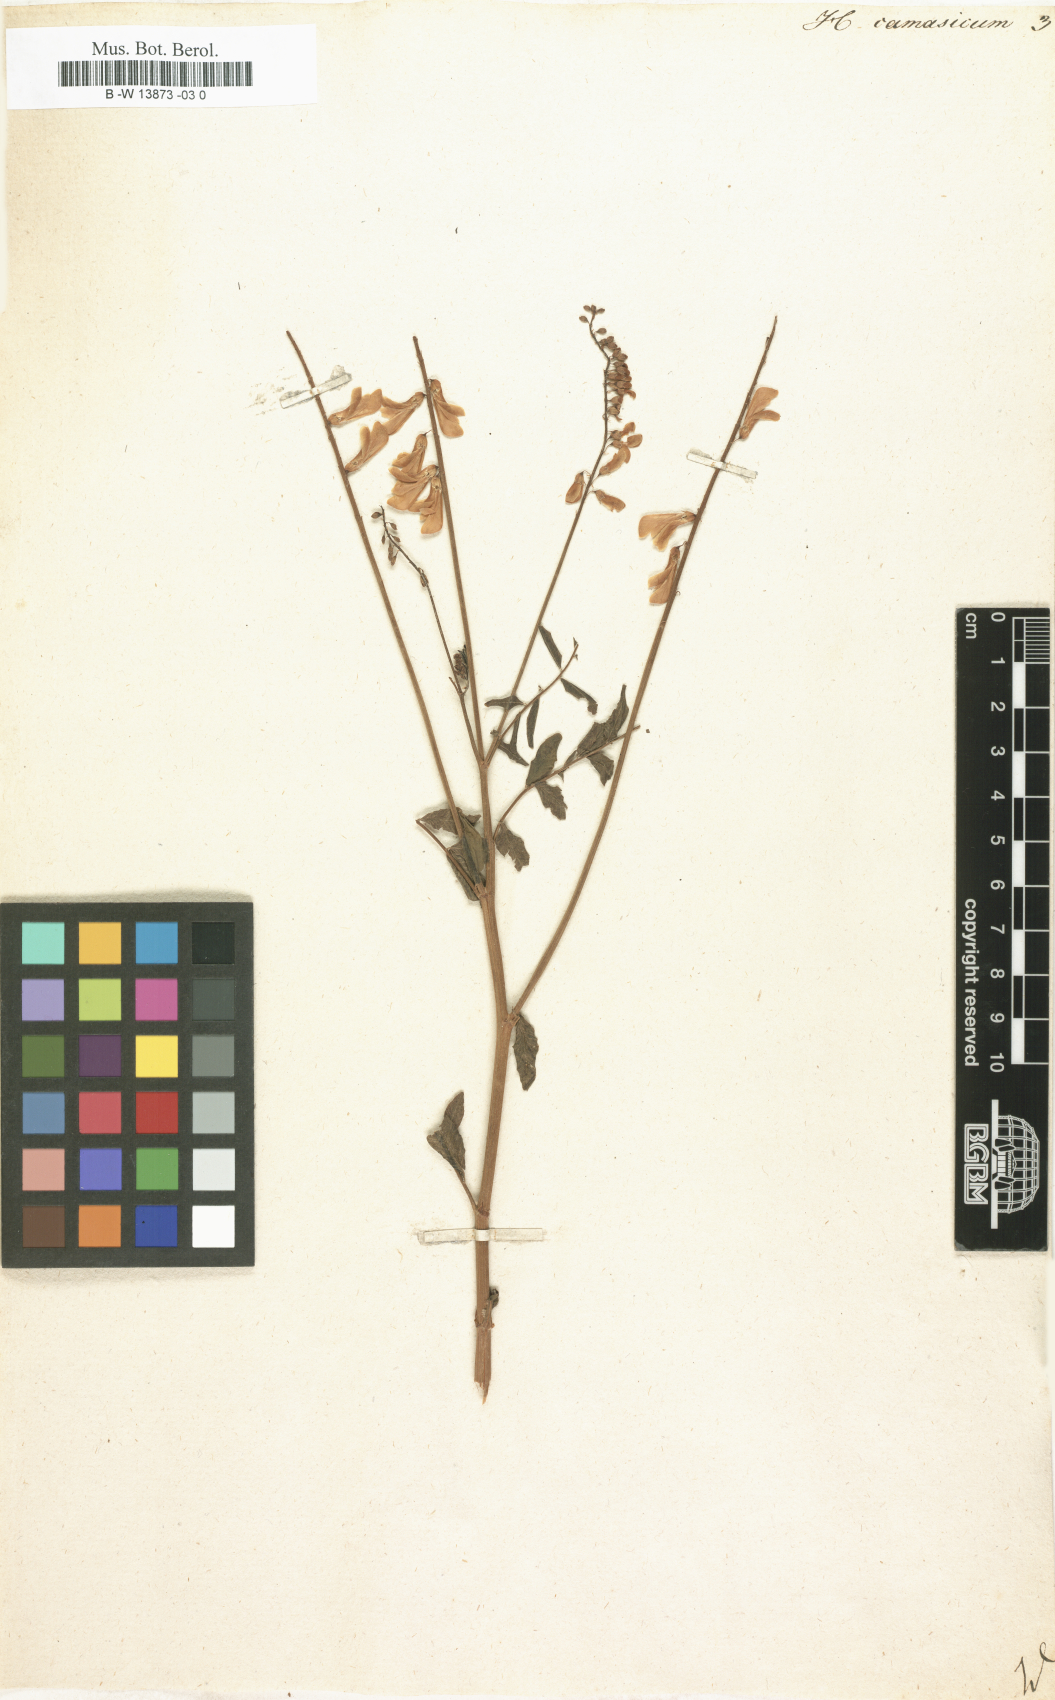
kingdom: Plantae
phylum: Tracheophyta
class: Magnoliopsida
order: Fabales
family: Fabaceae
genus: Hedysarum
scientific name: Hedysarum caucasicum
